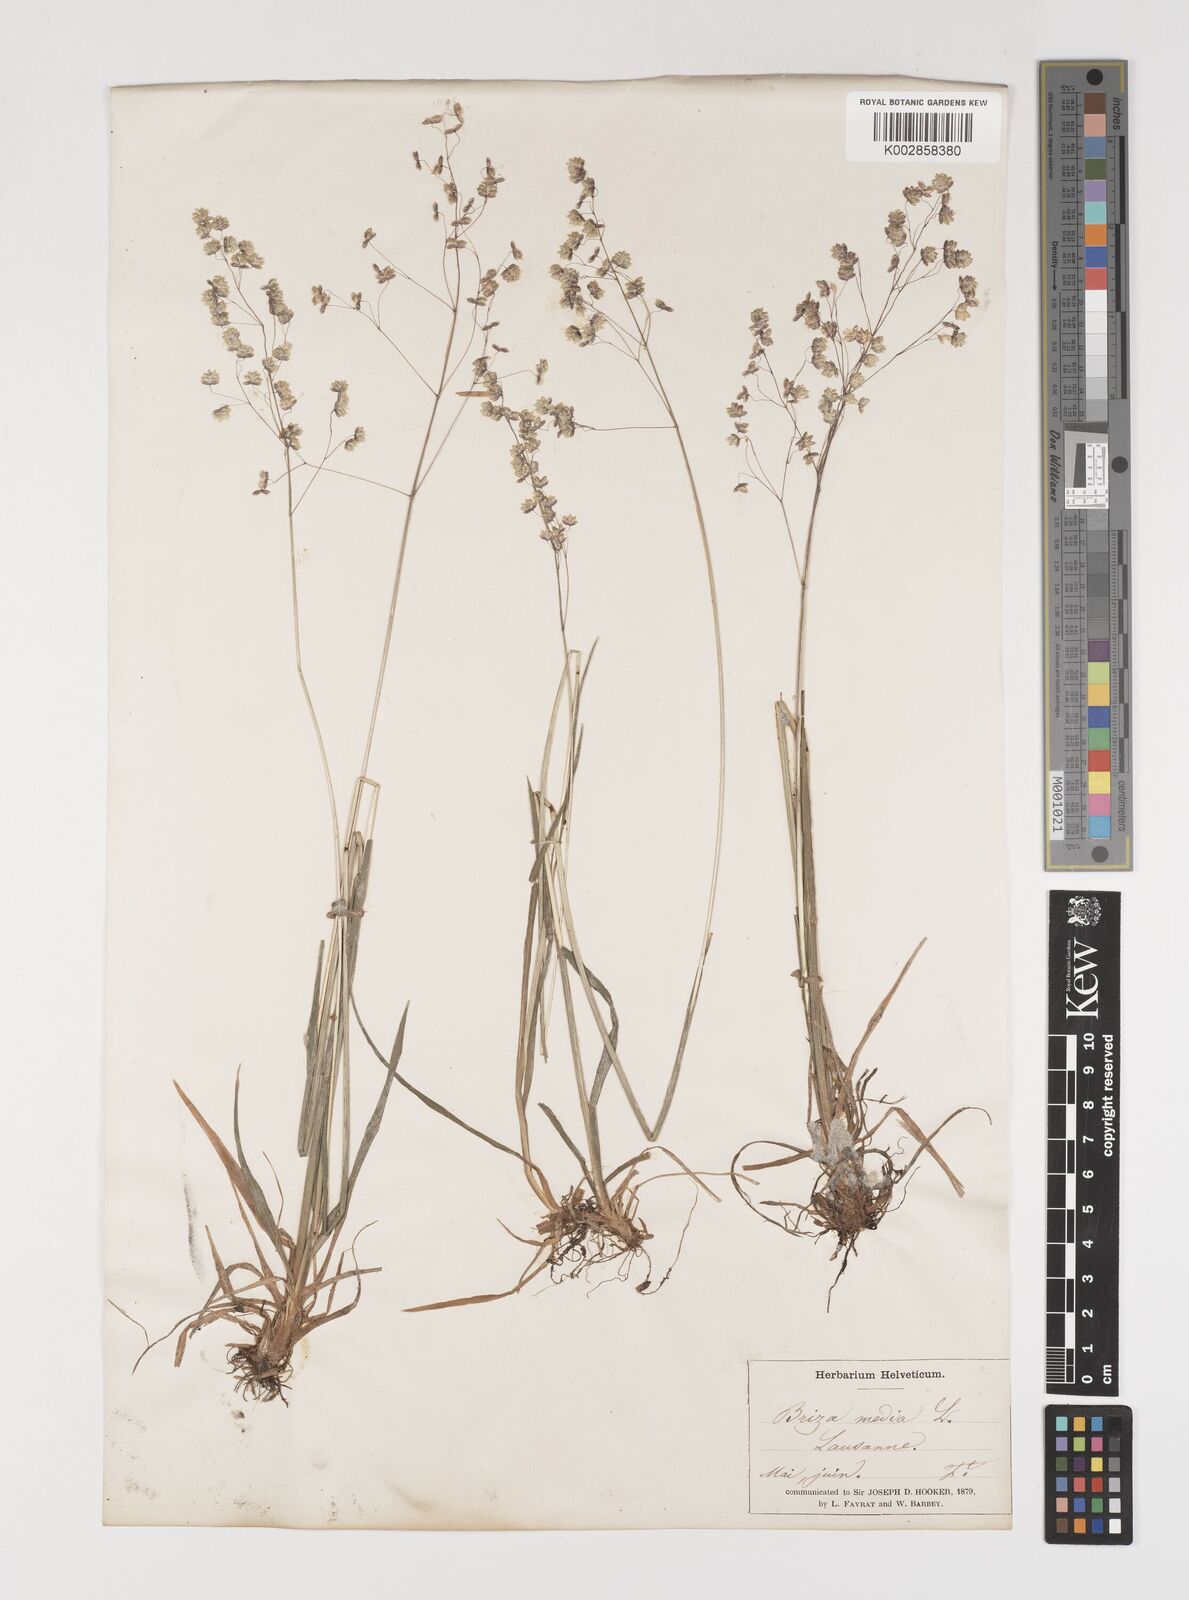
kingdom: Plantae
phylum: Tracheophyta
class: Liliopsida
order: Poales
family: Poaceae
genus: Briza
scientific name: Briza media
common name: Quaking grass
